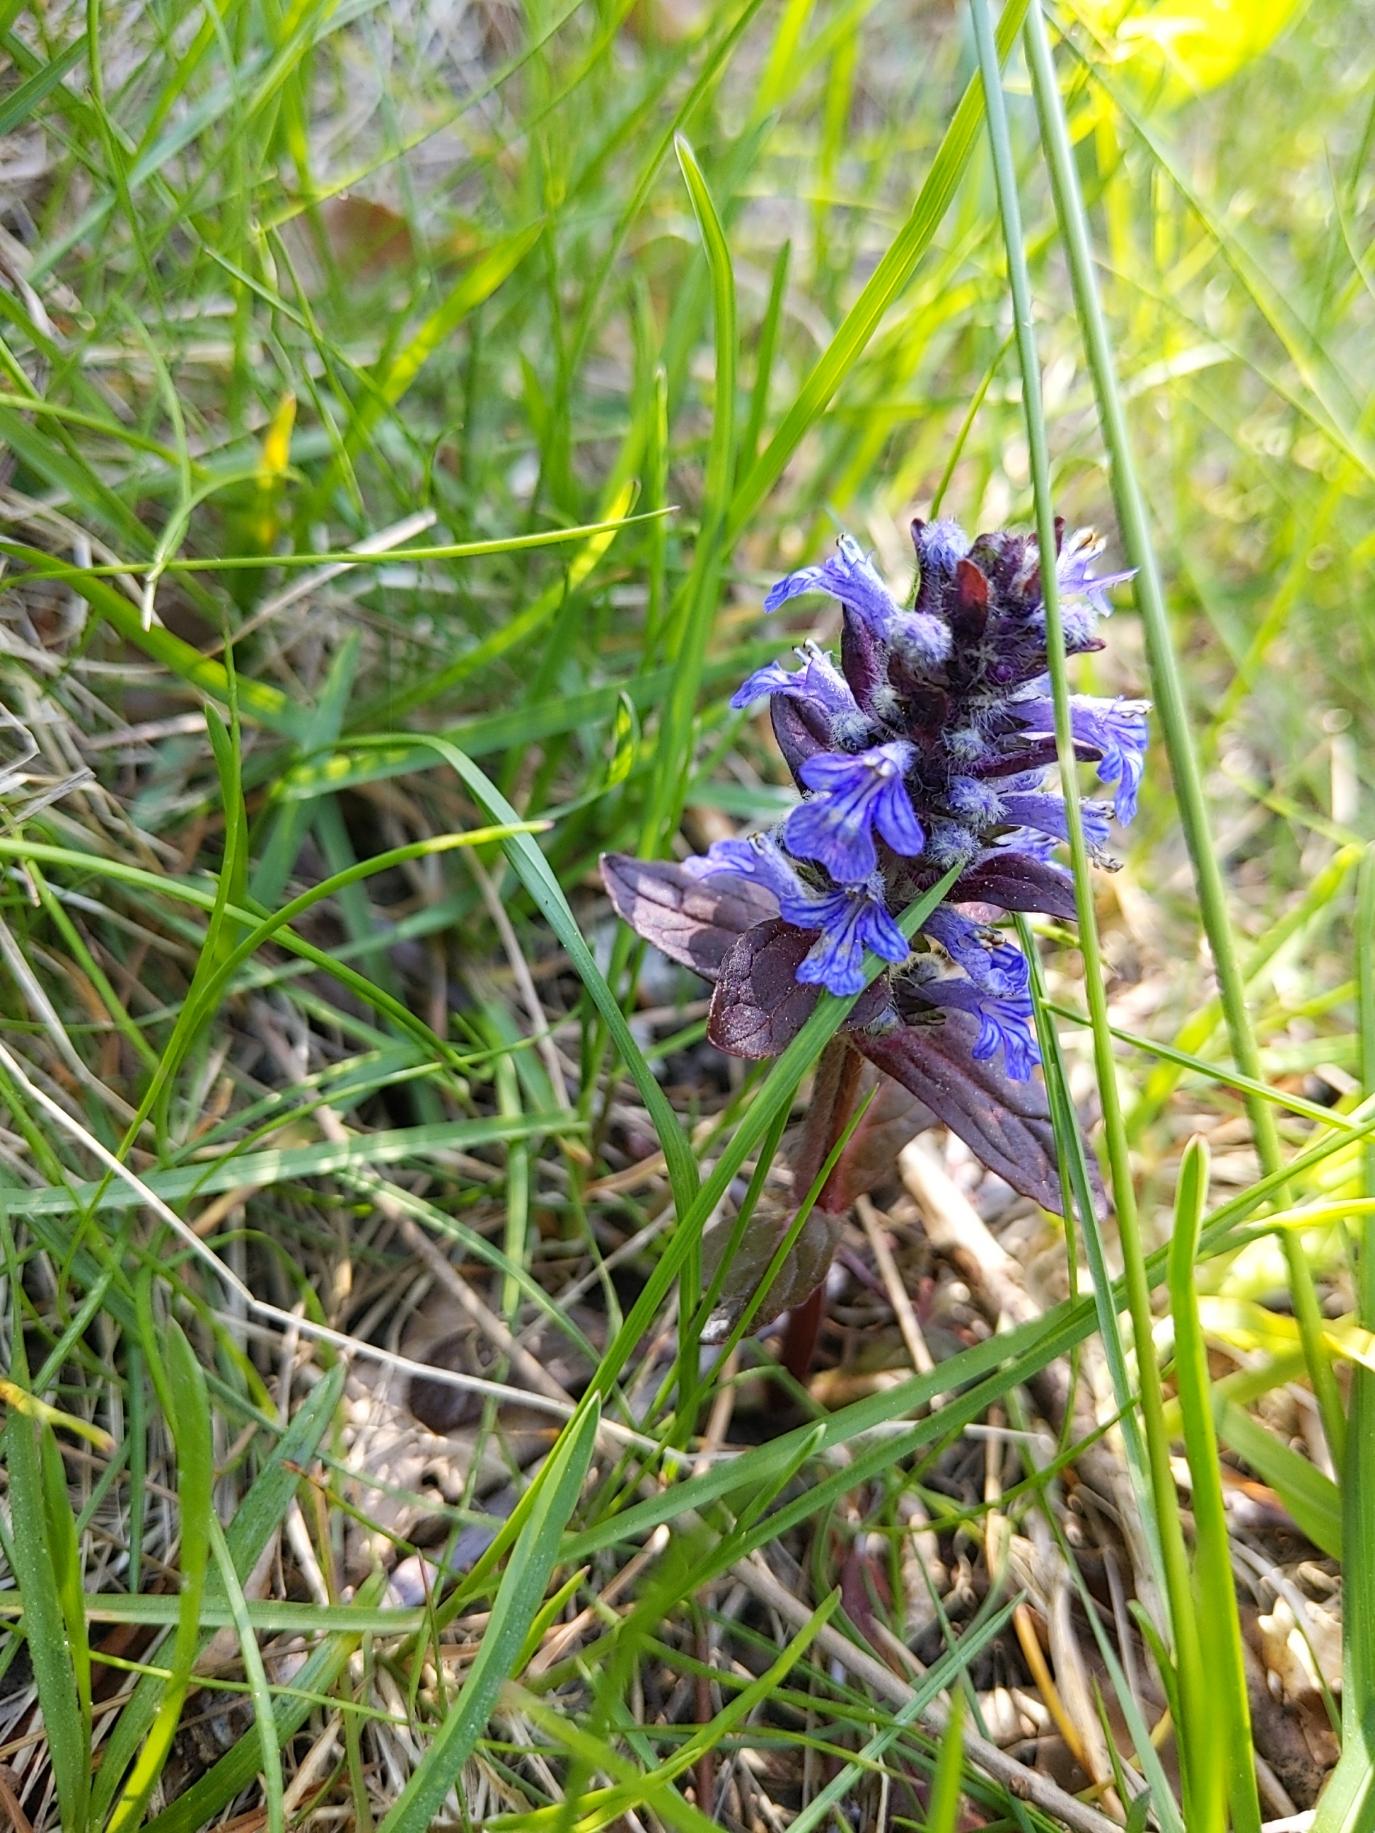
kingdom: Plantae
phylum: Tracheophyta
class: Magnoliopsida
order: Lamiales
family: Lamiaceae
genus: Ajuga
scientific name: Ajuga reptans
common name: Krybende læbeløs
